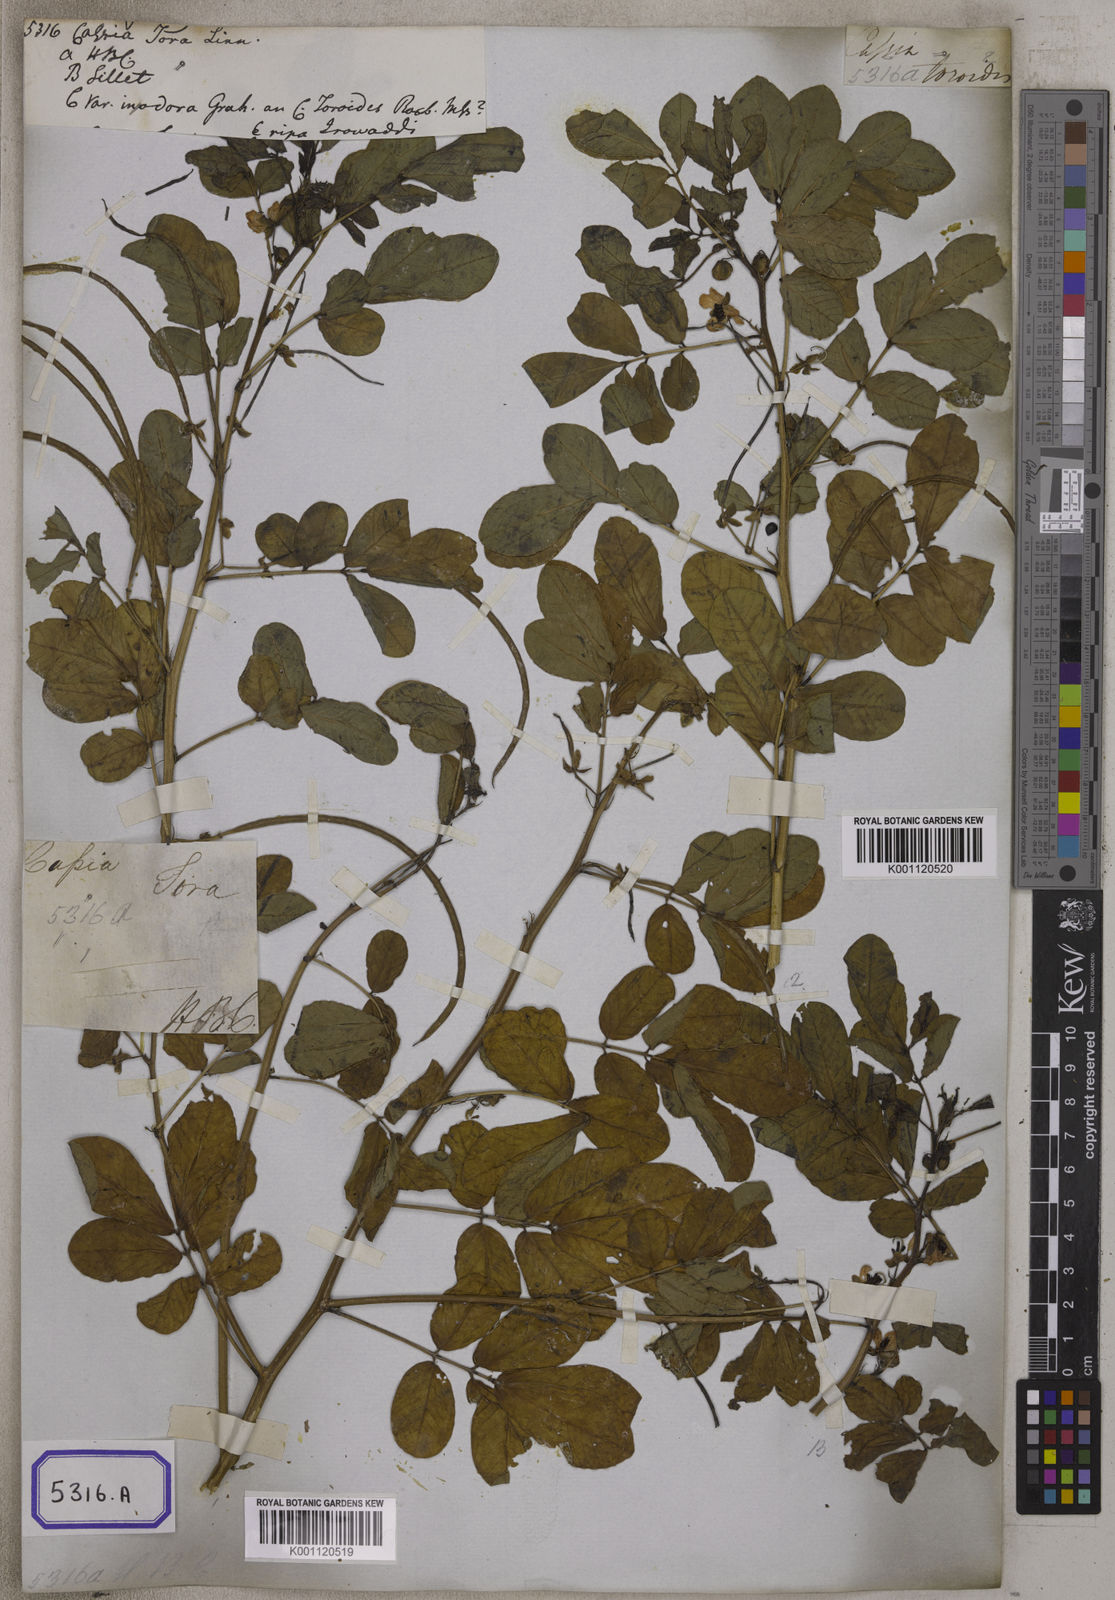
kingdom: Plantae
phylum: Tracheophyta
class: Magnoliopsida
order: Fabales
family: Fabaceae
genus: Senna
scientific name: Senna tora
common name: Sickle senna
